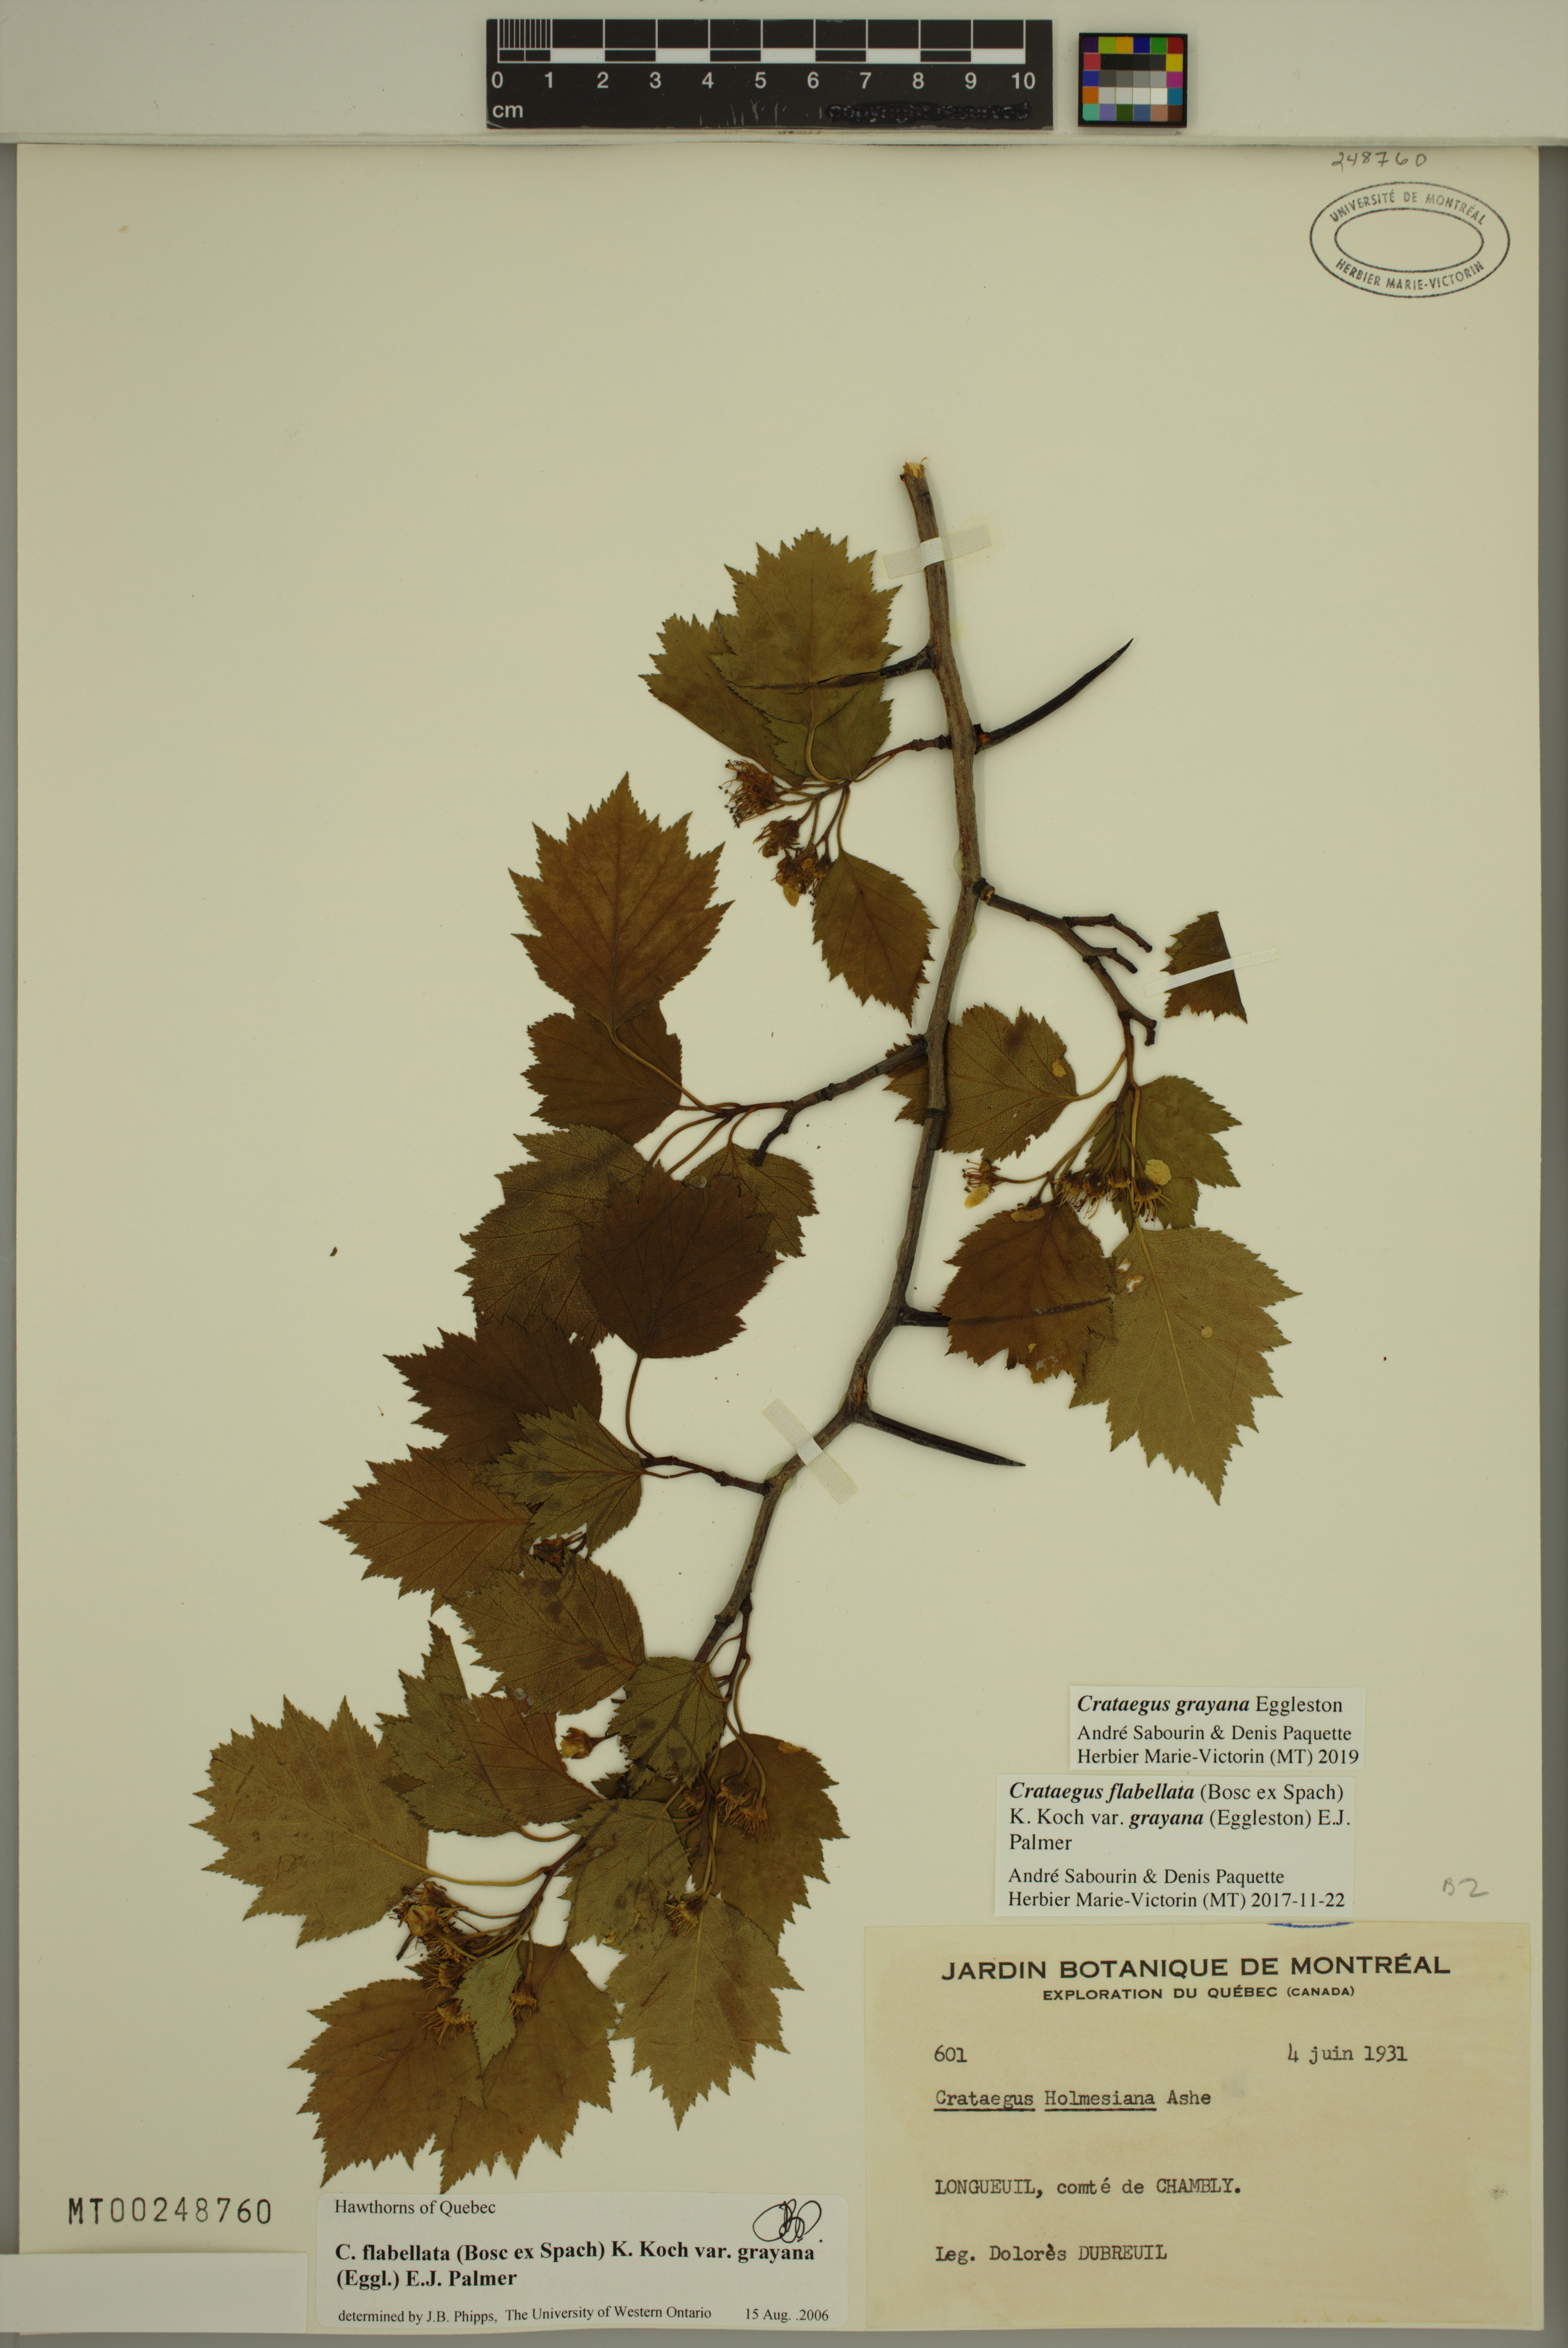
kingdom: Plantae
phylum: Tracheophyta
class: Magnoliopsida
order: Rosales
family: Rosaceae
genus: Crataegus
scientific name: Crataegus schuettei
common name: Schuette's hawthorn
